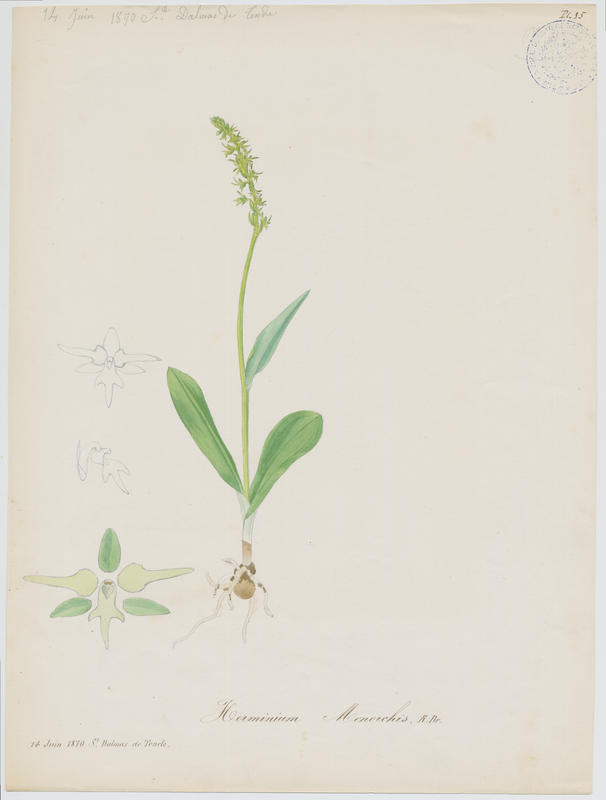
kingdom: Plantae
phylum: Tracheophyta
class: Liliopsida
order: Asparagales
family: Orchidaceae
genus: Herminium
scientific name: Herminium monorchis
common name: Musk orchid
